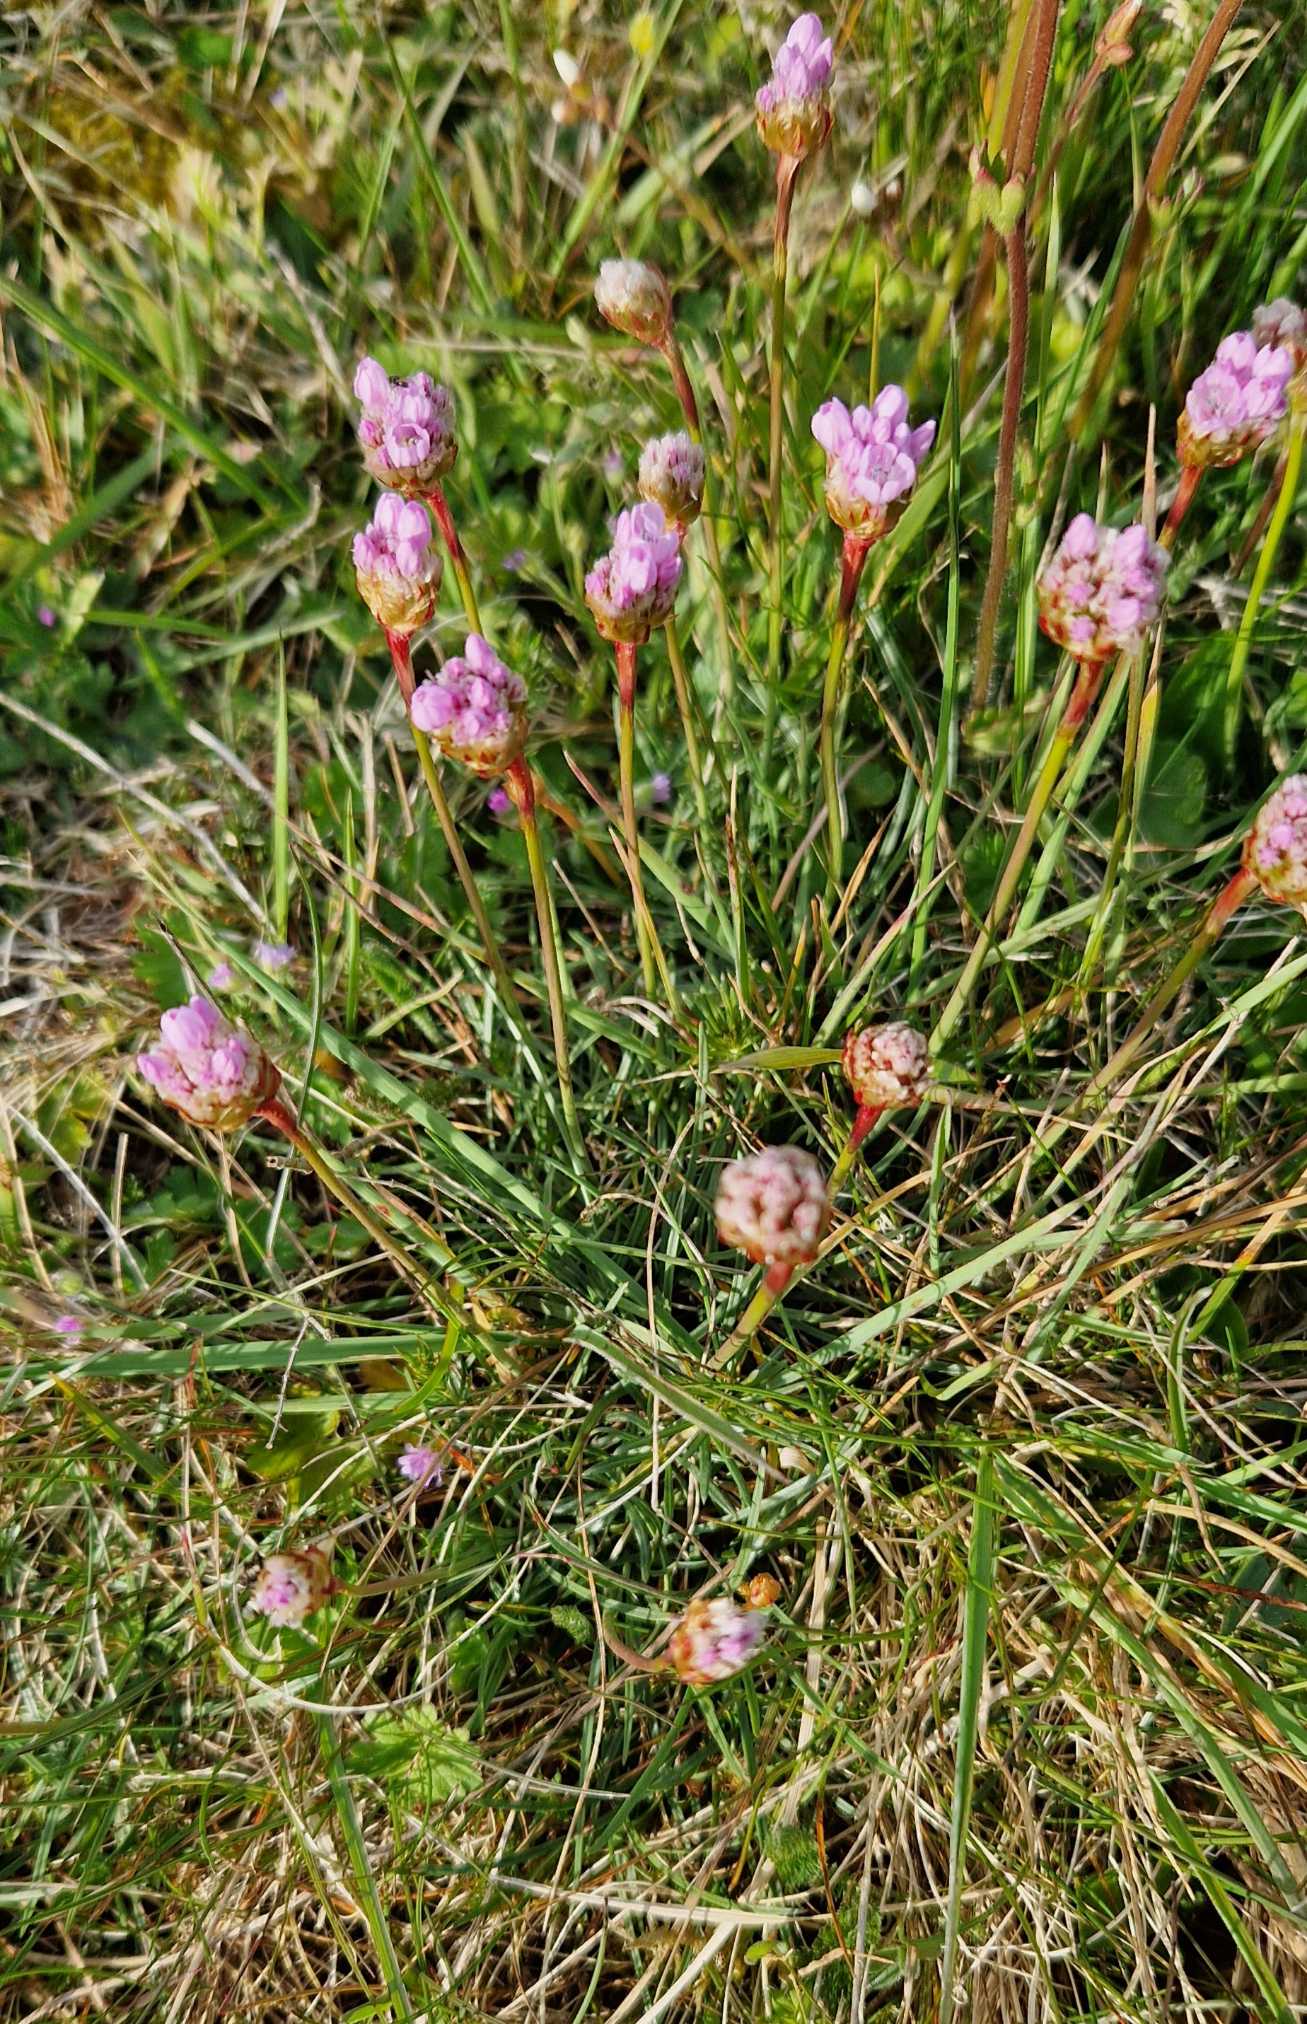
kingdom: Plantae
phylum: Tracheophyta
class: Magnoliopsida
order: Caryophyllales
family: Plumbaginaceae
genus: Armeria
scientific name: Armeria maritima
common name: Engelskgræs
